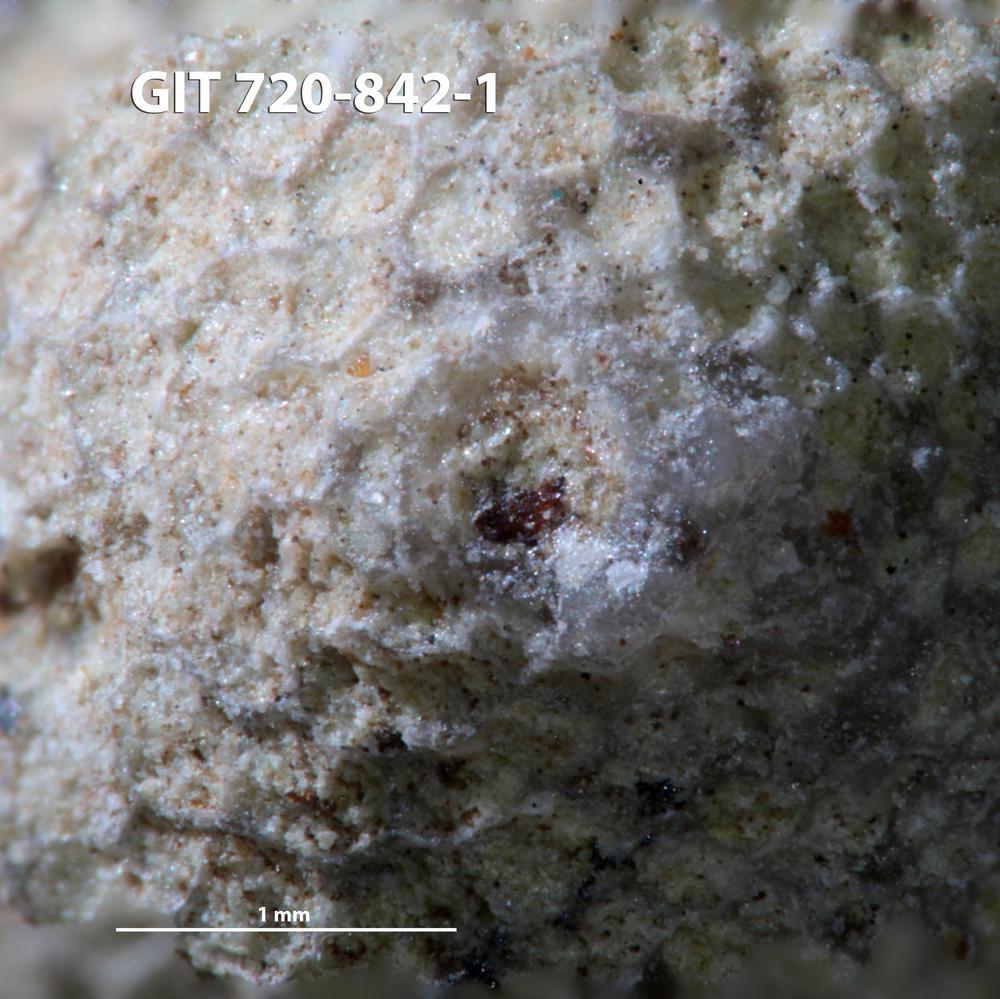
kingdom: Animalia
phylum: Annelida
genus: Anoigmaichnus
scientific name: Anoigmaichnus
